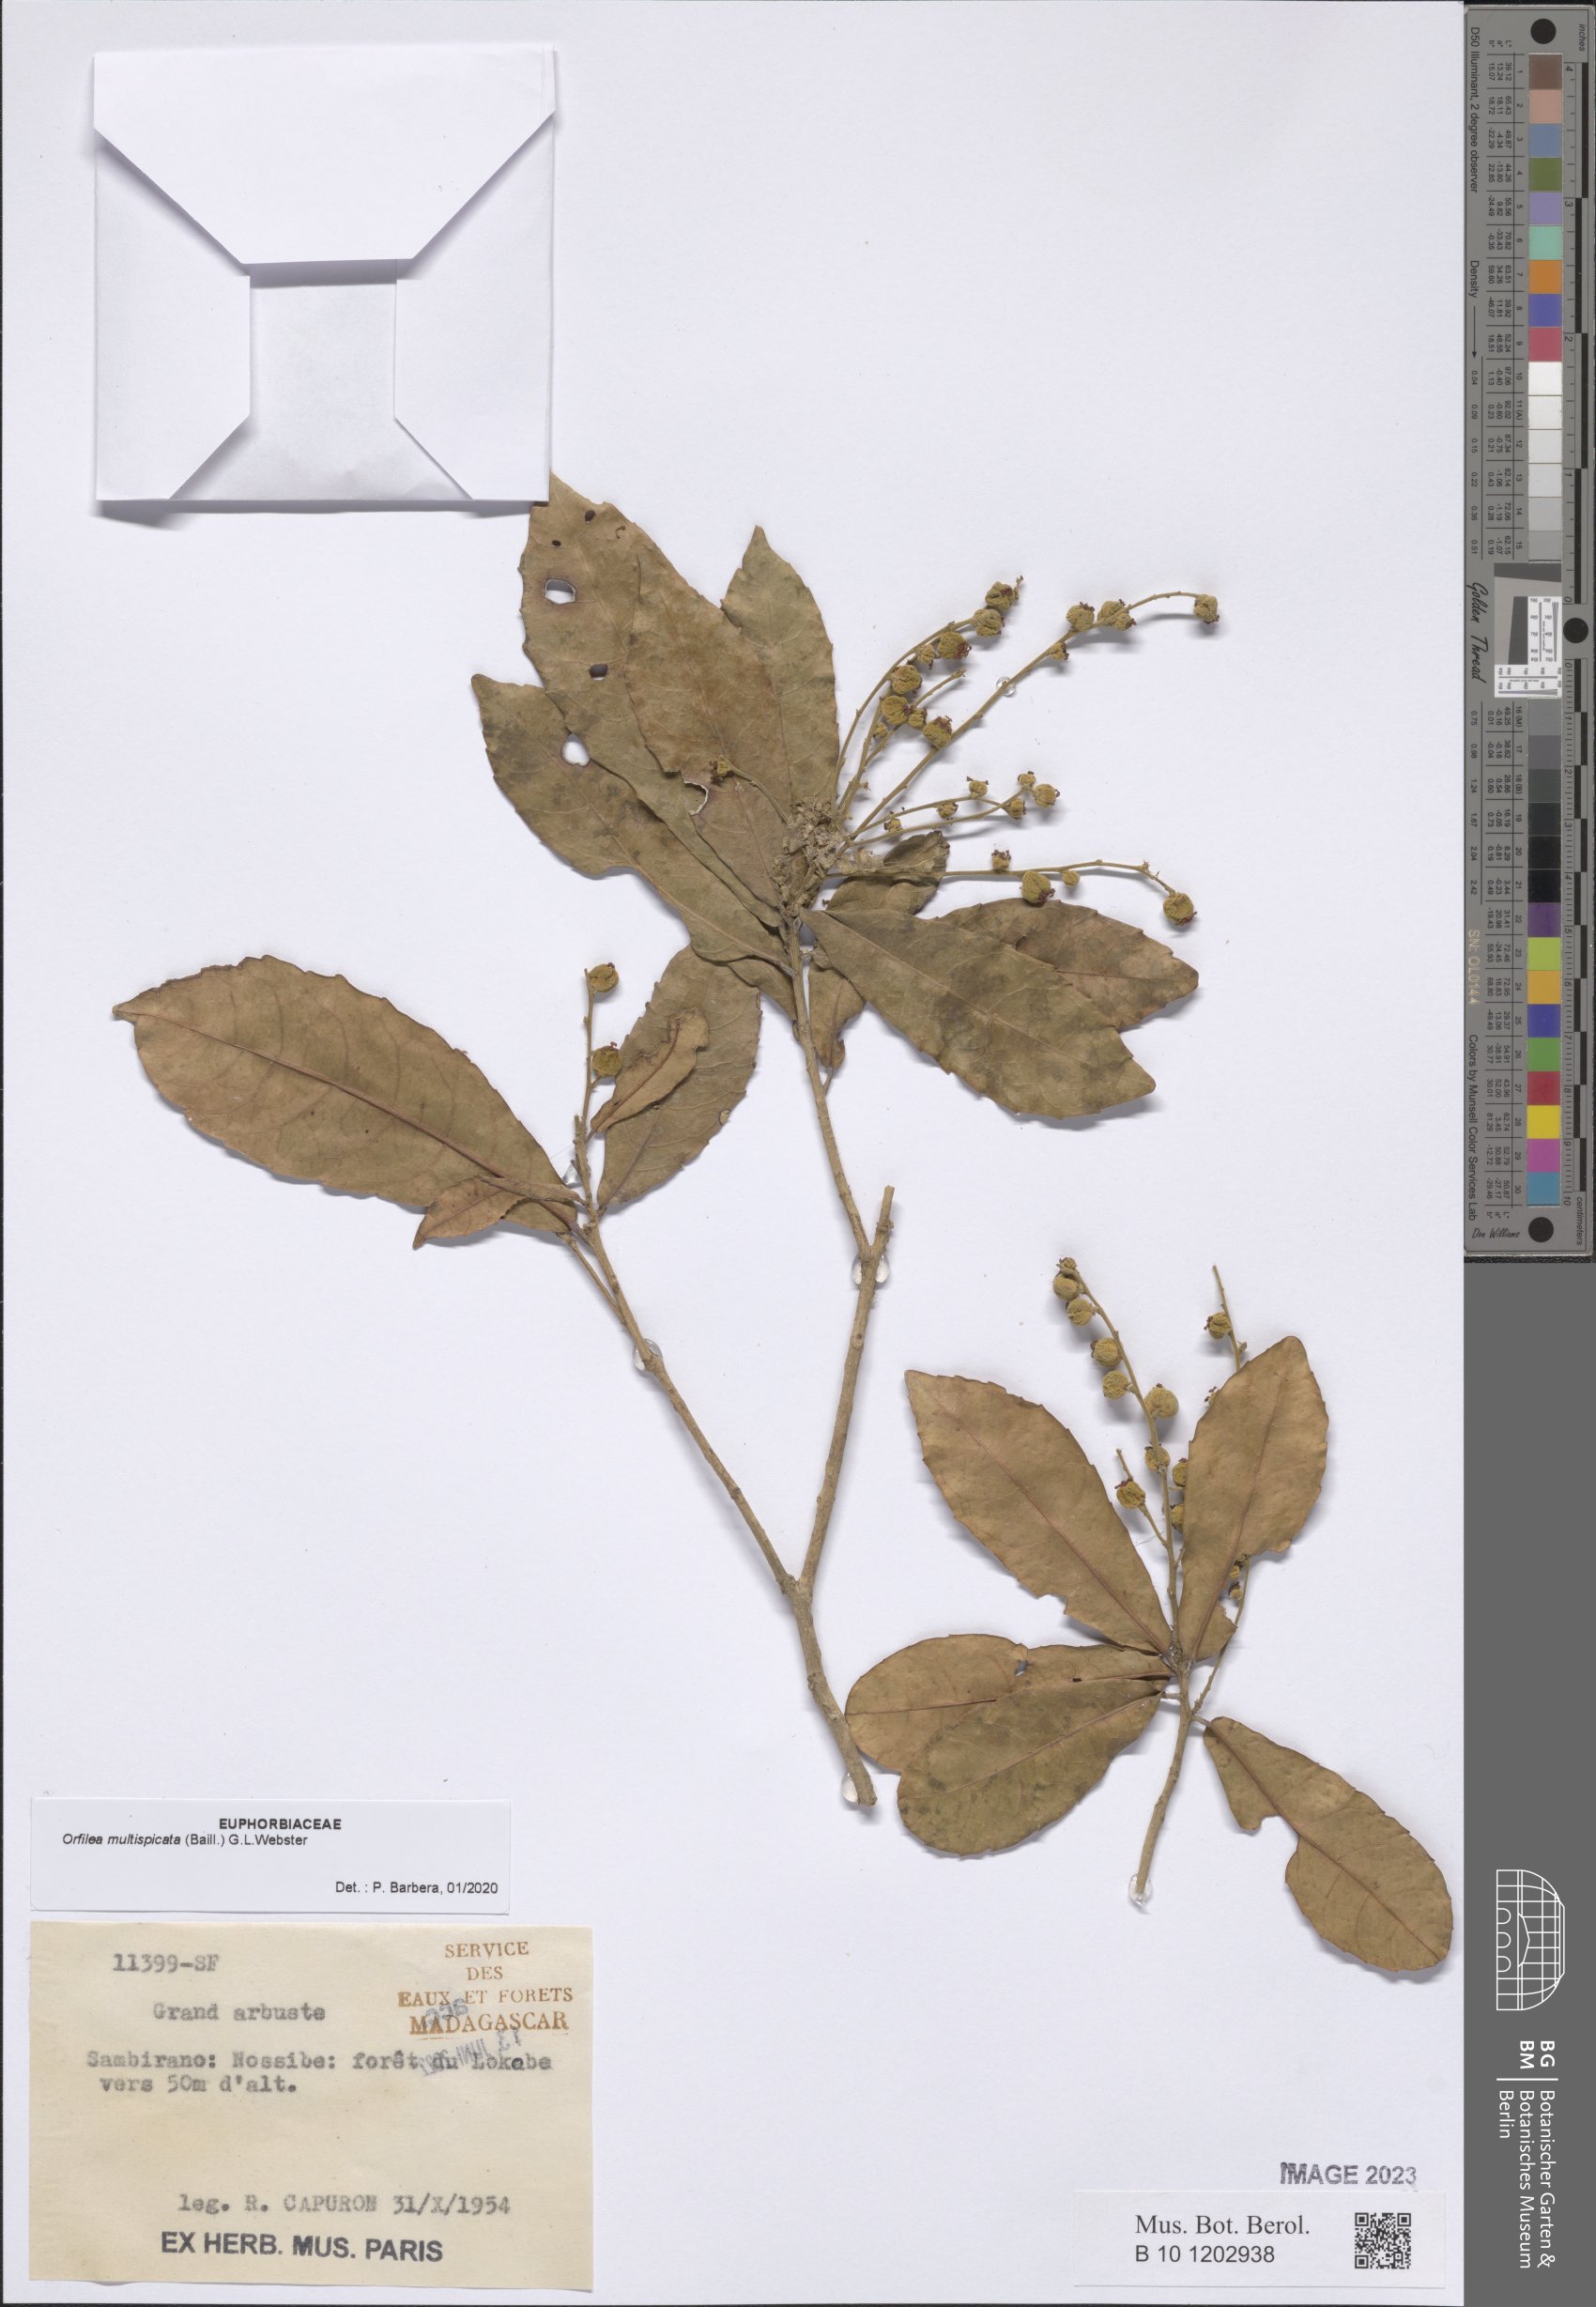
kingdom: Plantae
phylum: Tracheophyta
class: Magnoliopsida
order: Malpighiales
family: Euphorbiaceae
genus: Orfilea
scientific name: Orfilea multispicata
